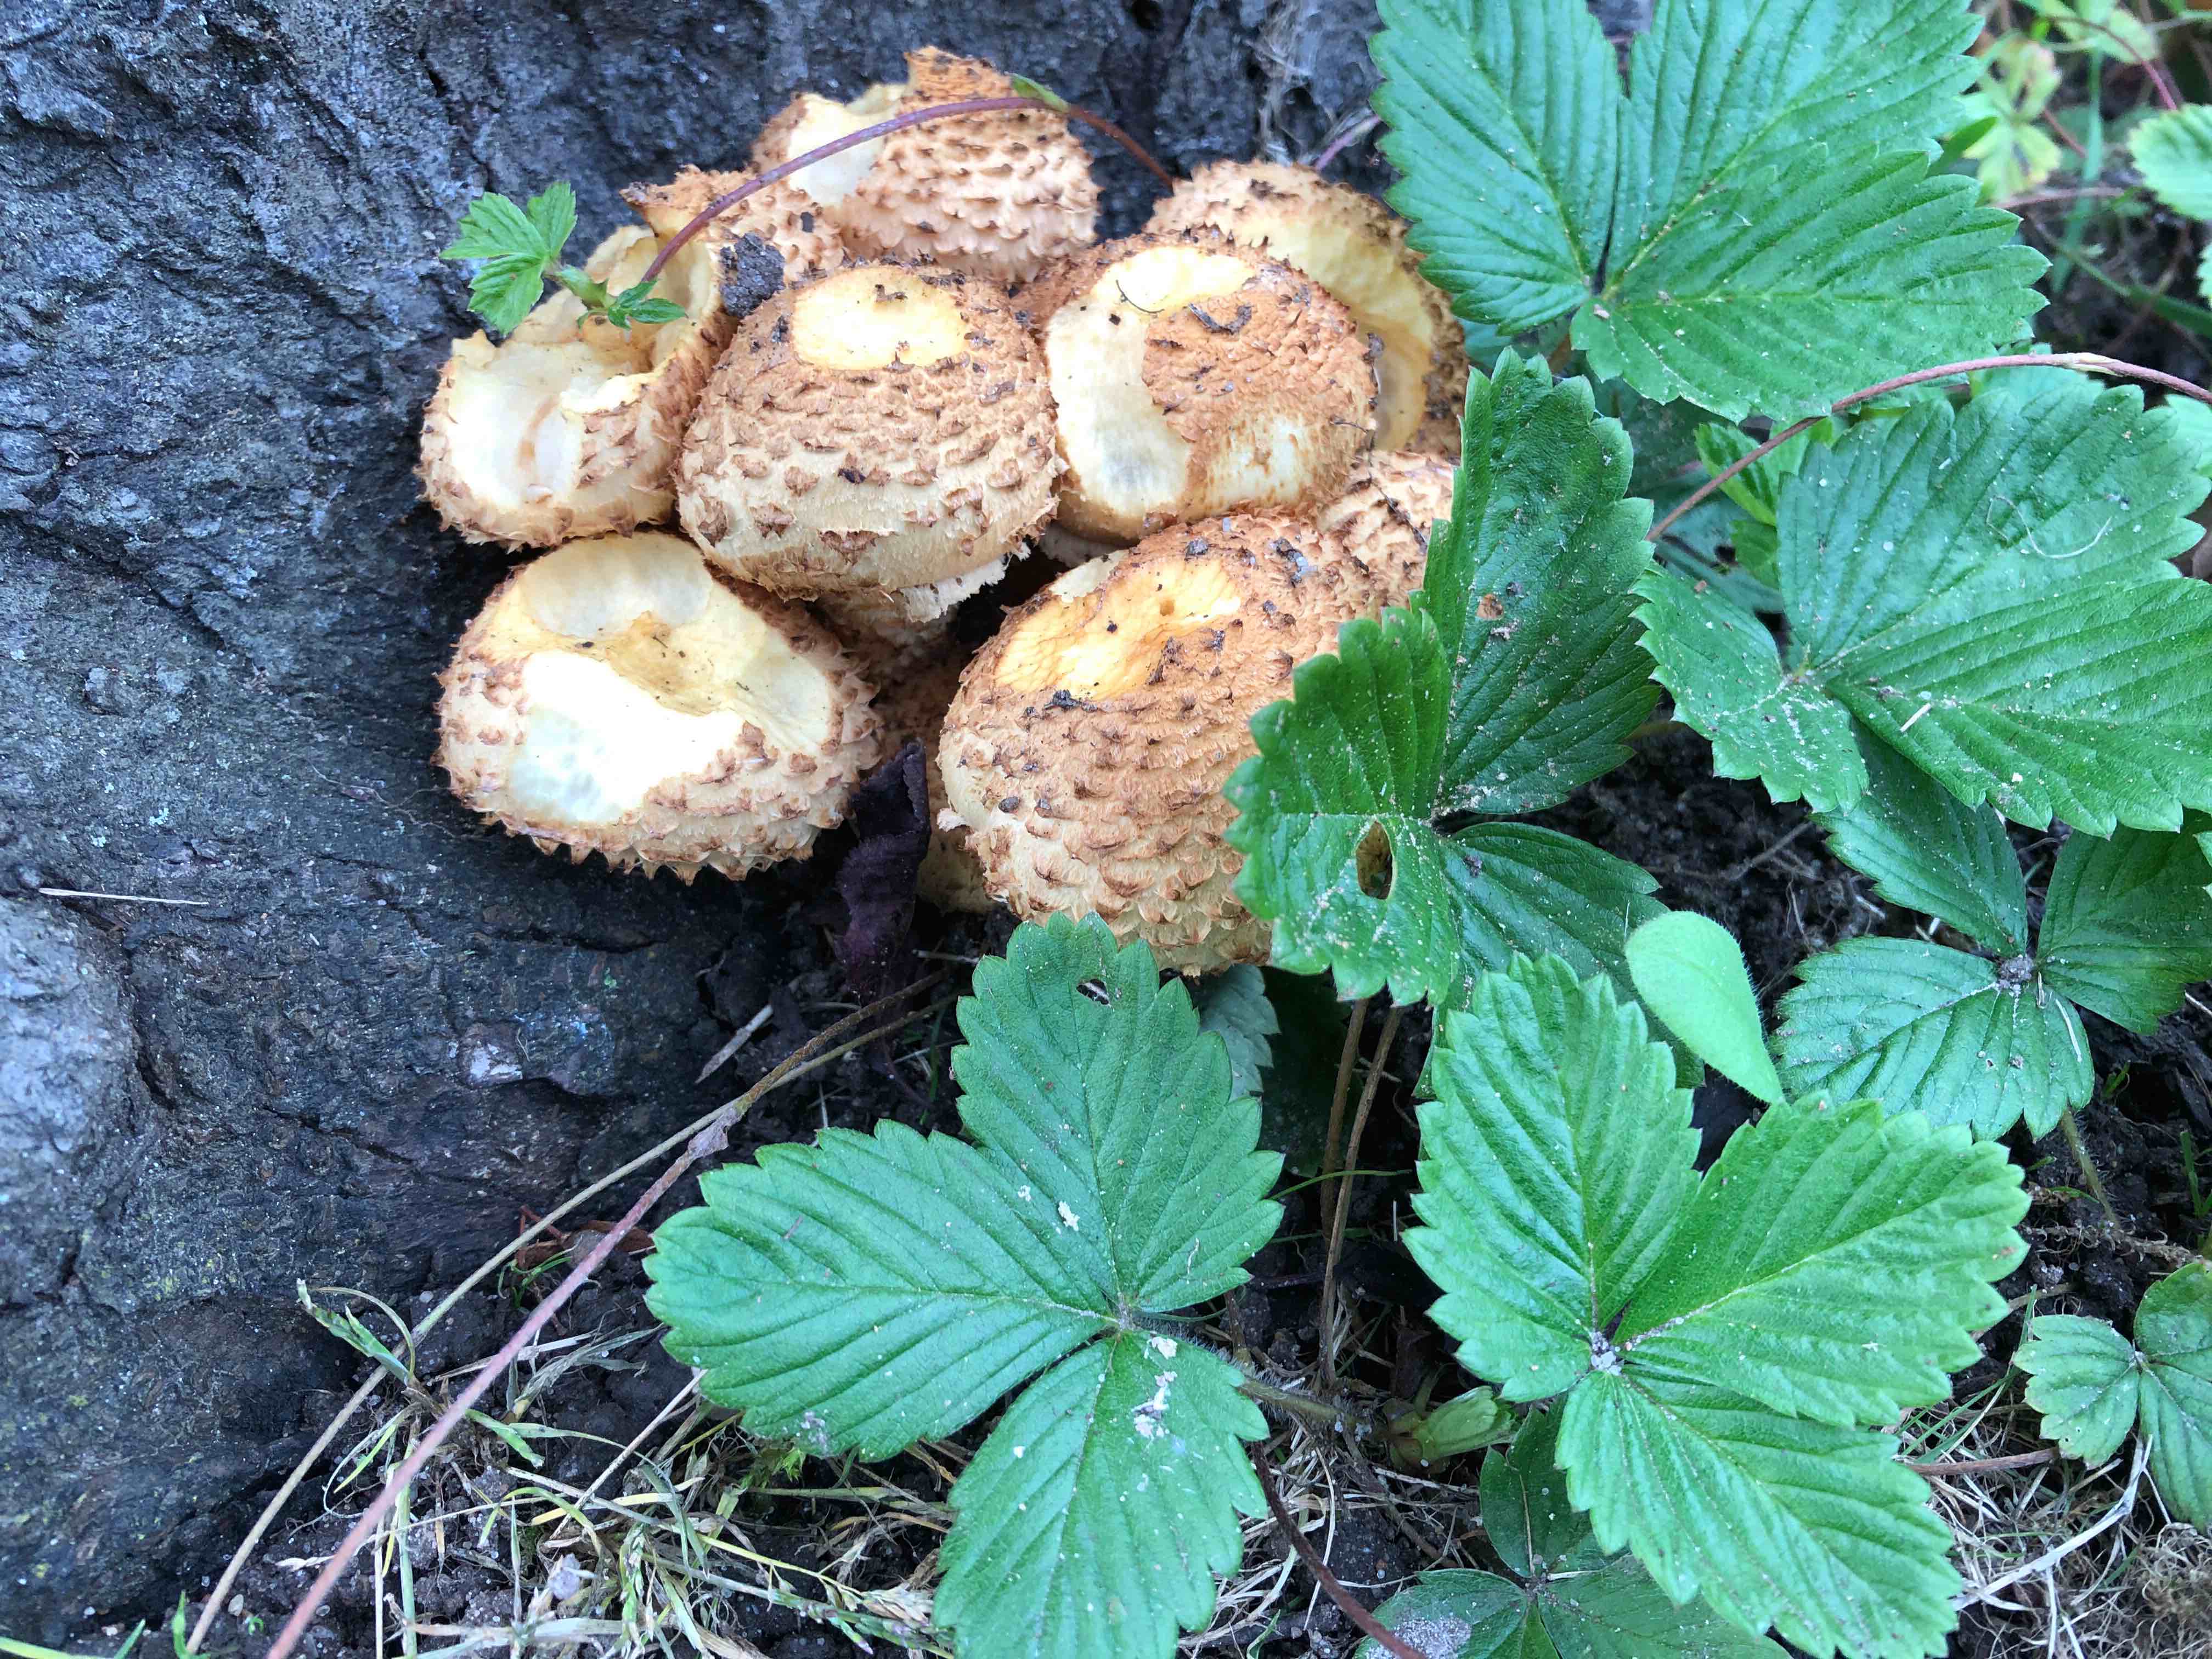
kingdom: Fungi
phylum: Basidiomycota
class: Agaricomycetes
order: Agaricales
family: Strophariaceae
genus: Pholiota
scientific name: Pholiota squarrosa
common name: krumskællet skælhat
